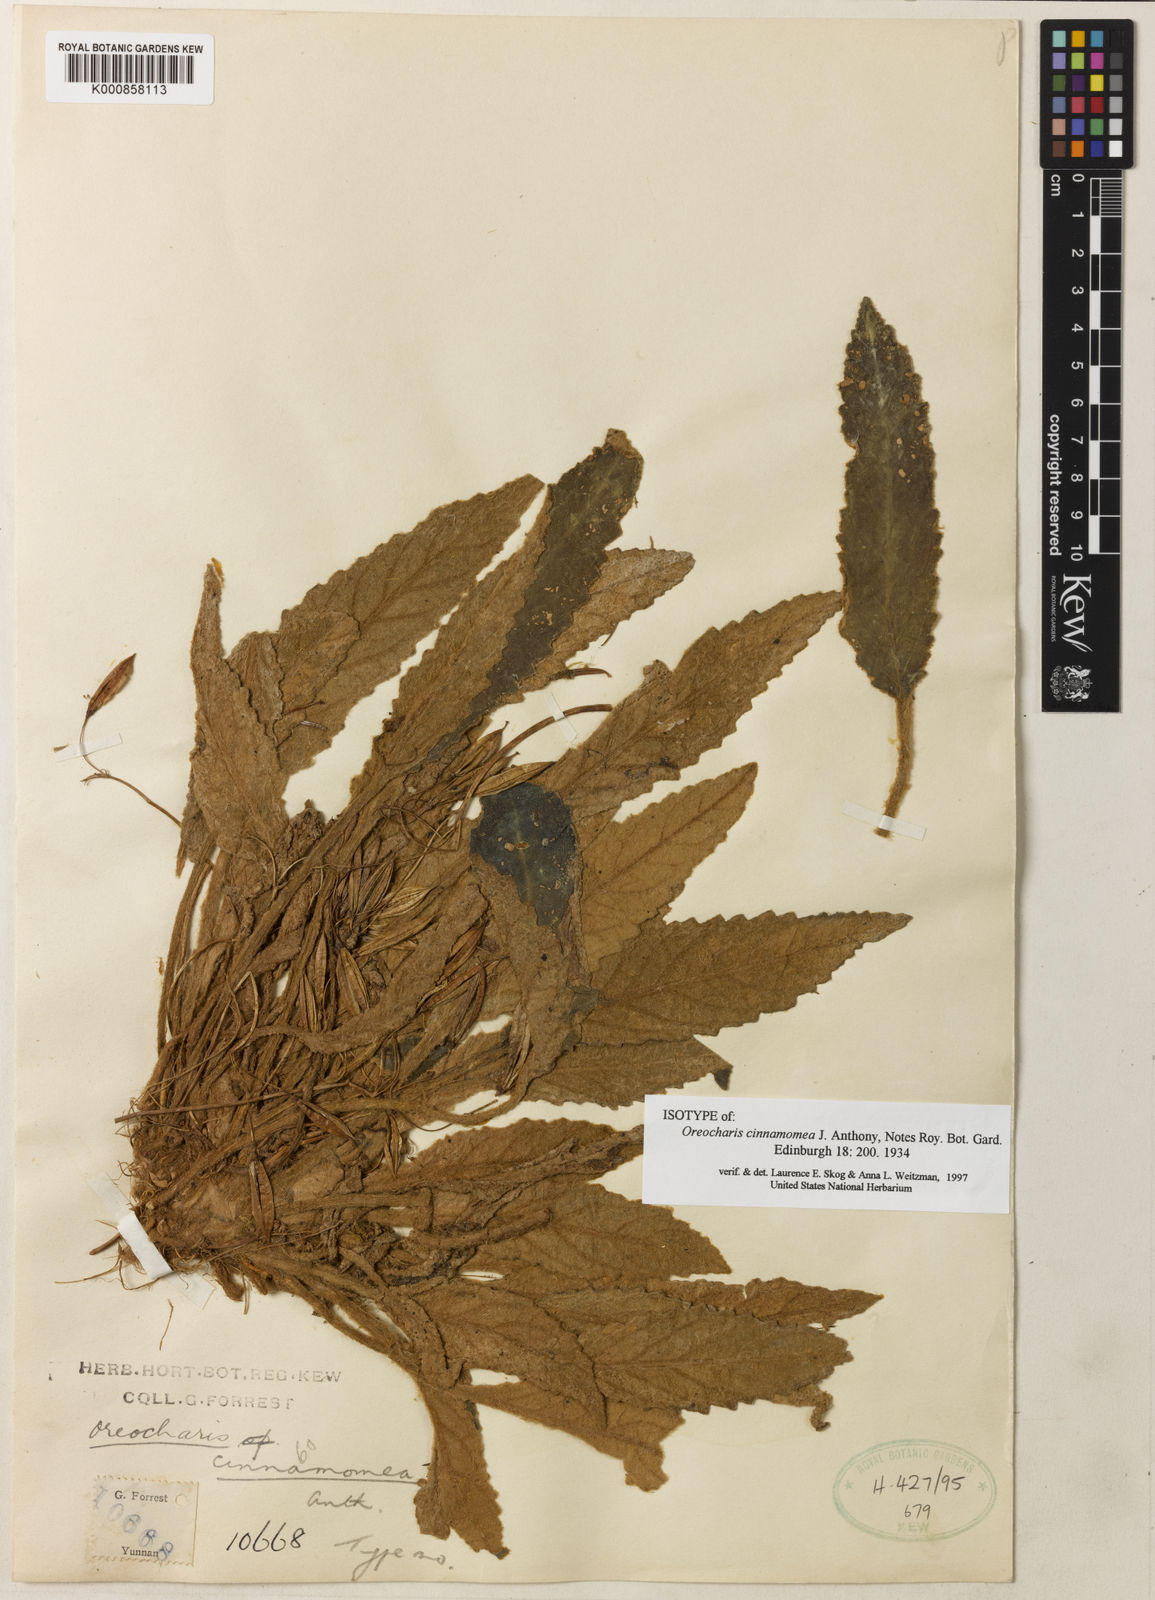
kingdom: Plantae
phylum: Tracheophyta
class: Magnoliopsida
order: Lamiales
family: Gesneriaceae
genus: Oreocharis
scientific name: Oreocharis cinnamomea
